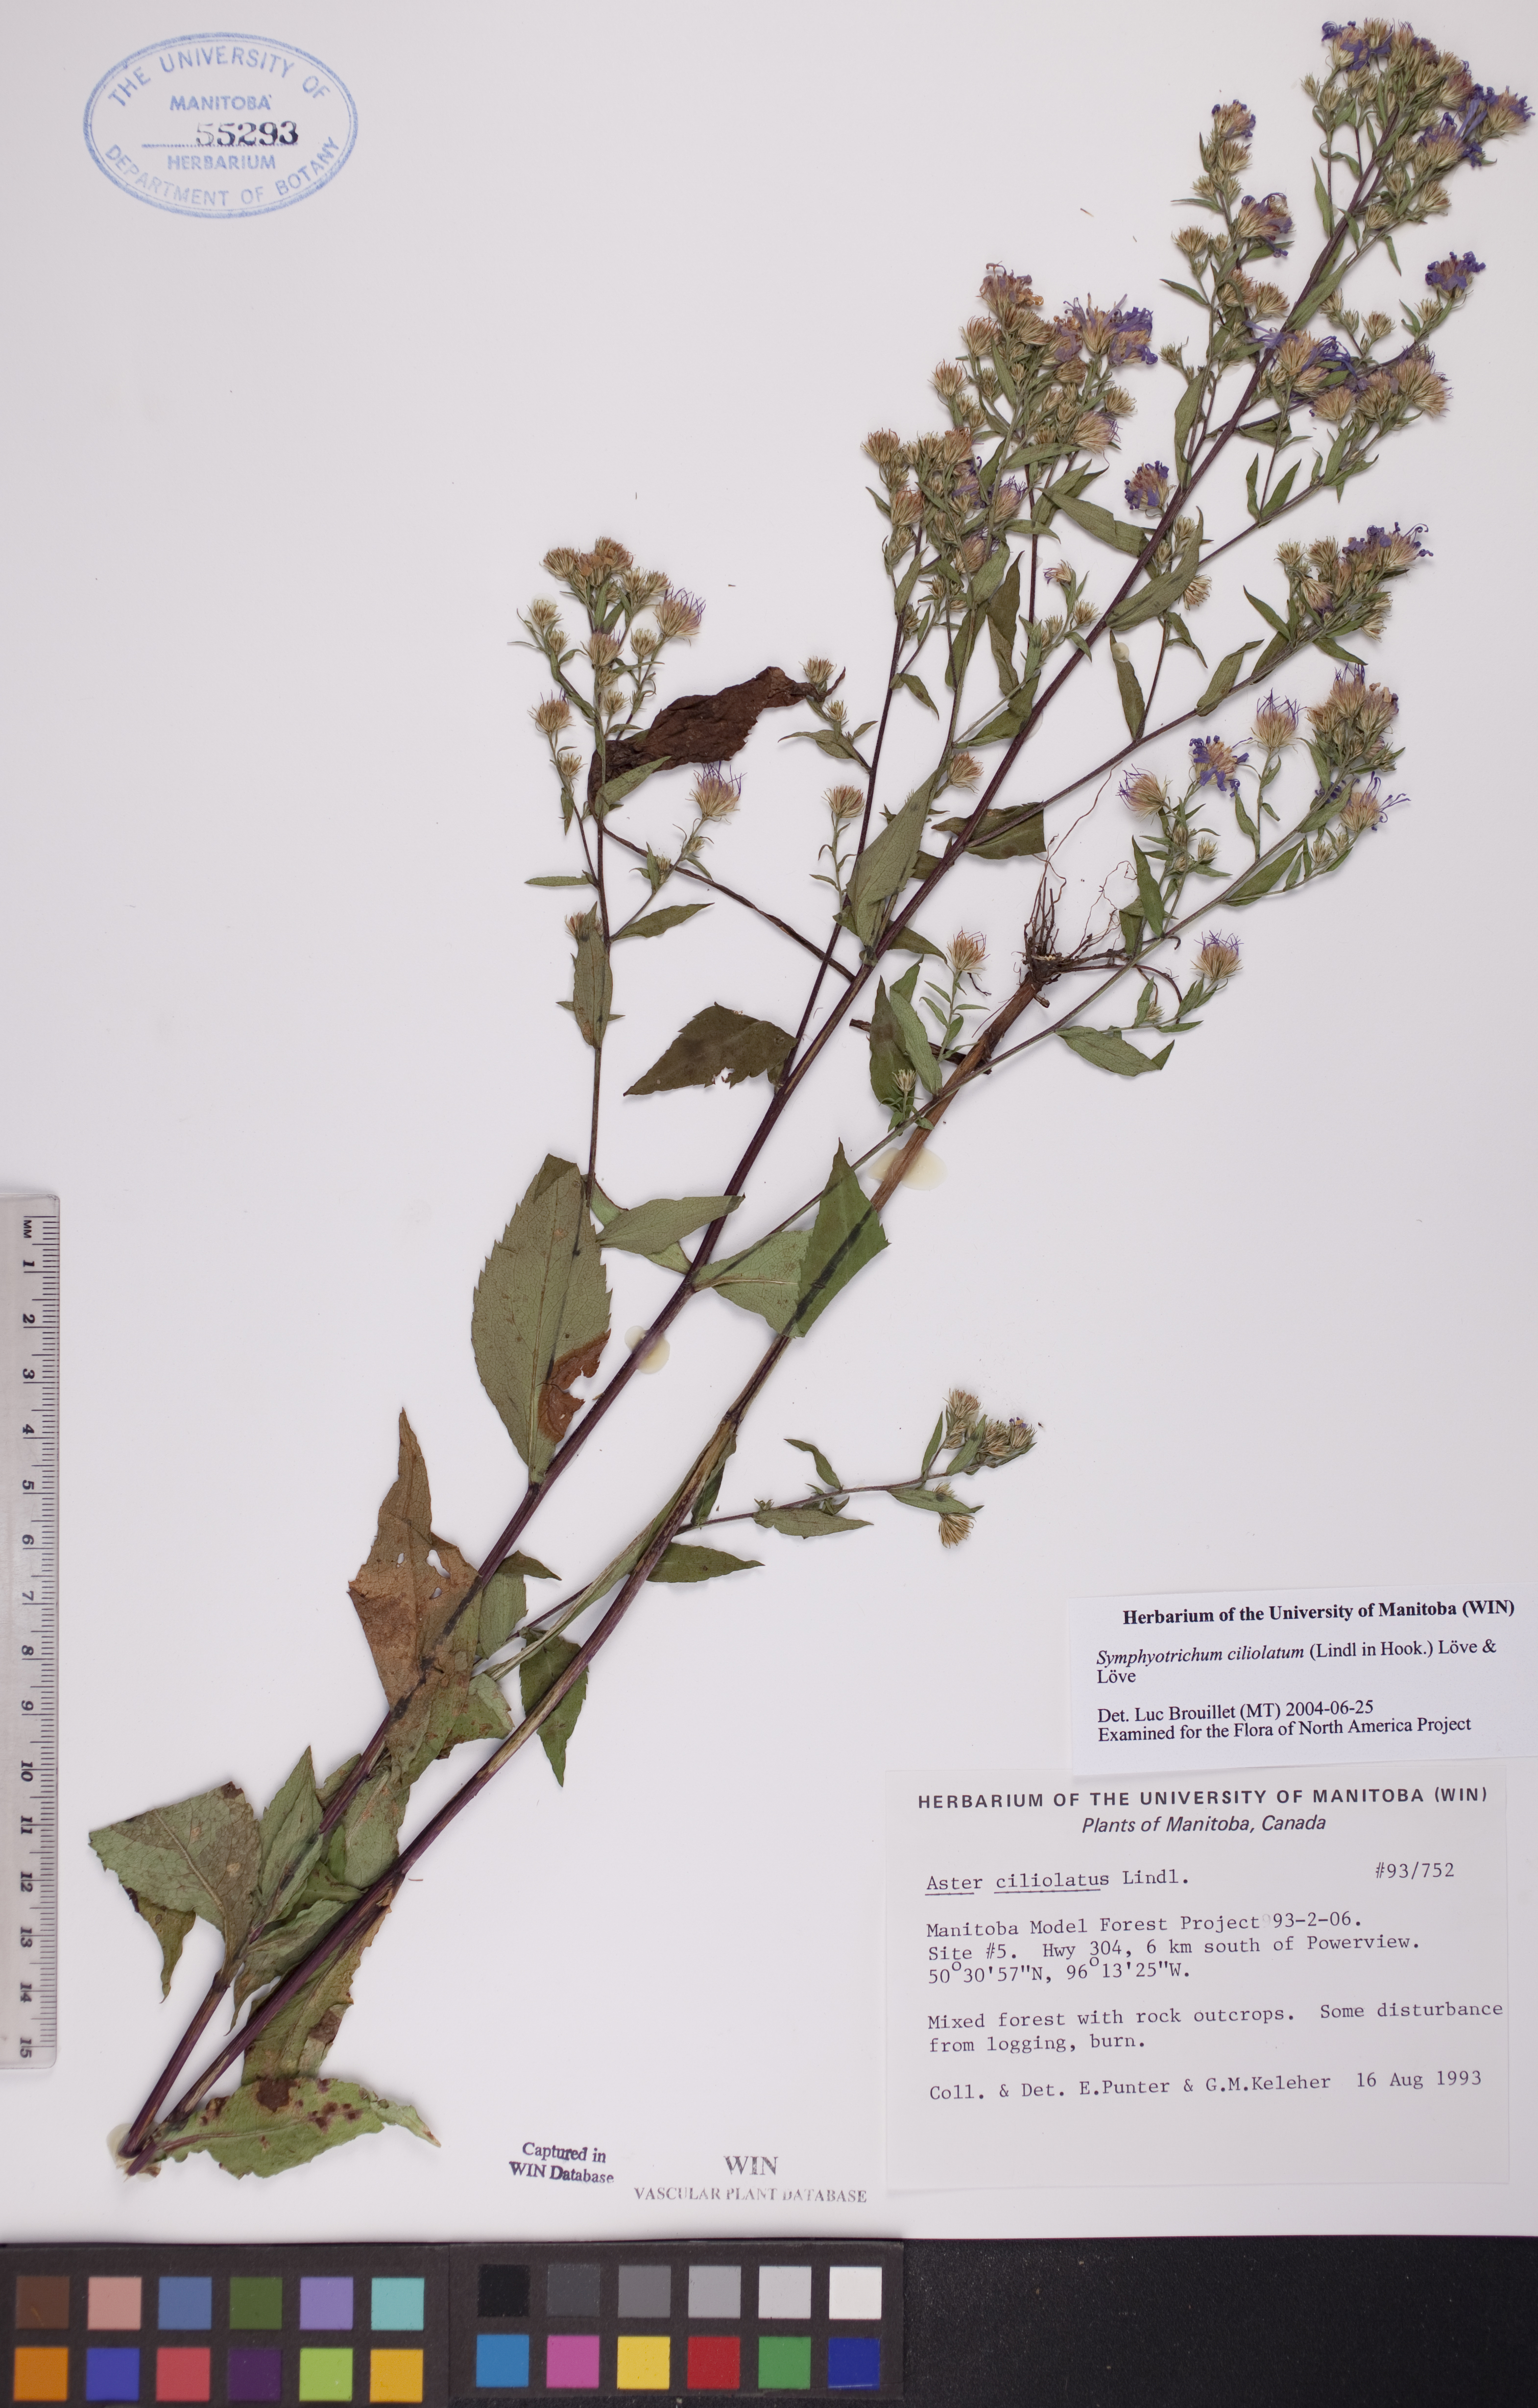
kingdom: Plantae
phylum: Tracheophyta
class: Magnoliopsida
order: Asterales
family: Asteraceae
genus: Symphyotrichum
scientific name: Symphyotrichum ciliolatum
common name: Fringed blue aster
